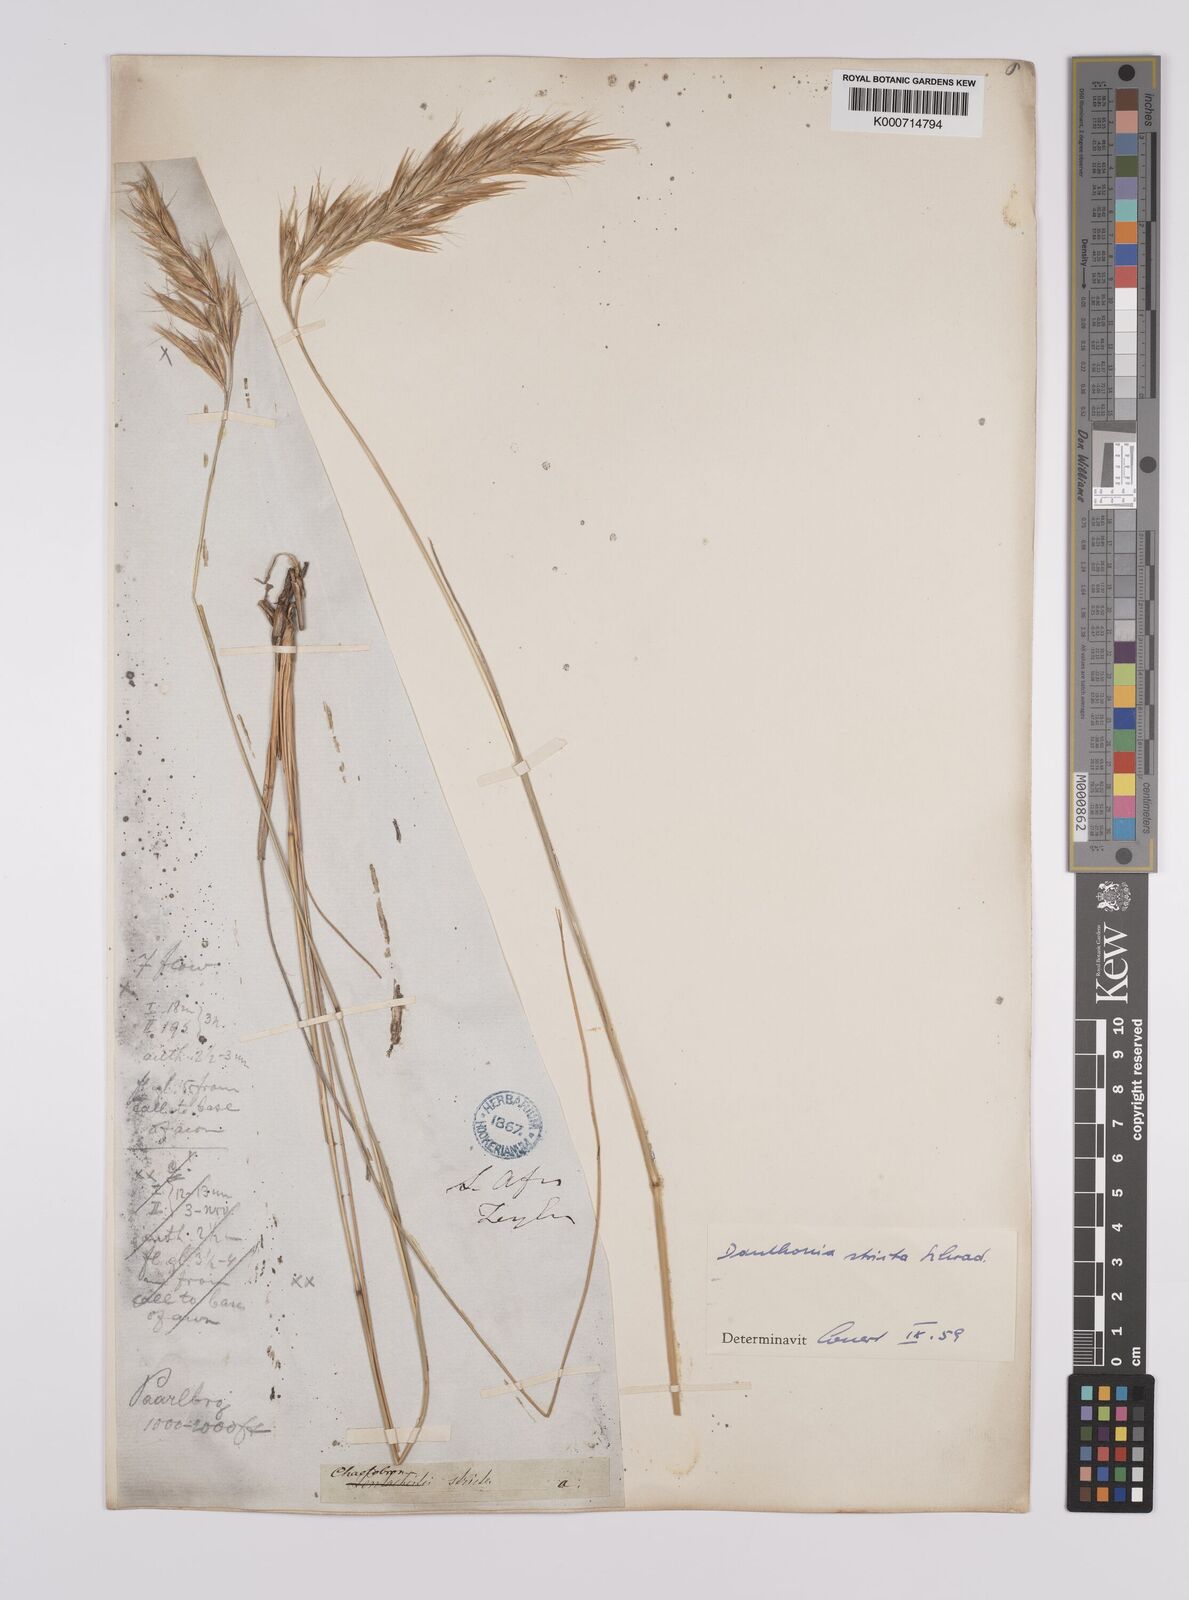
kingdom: Plantae
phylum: Tracheophyta
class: Liliopsida
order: Poales
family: Poaceae
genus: Rytidosperma
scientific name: Rytidosperma
